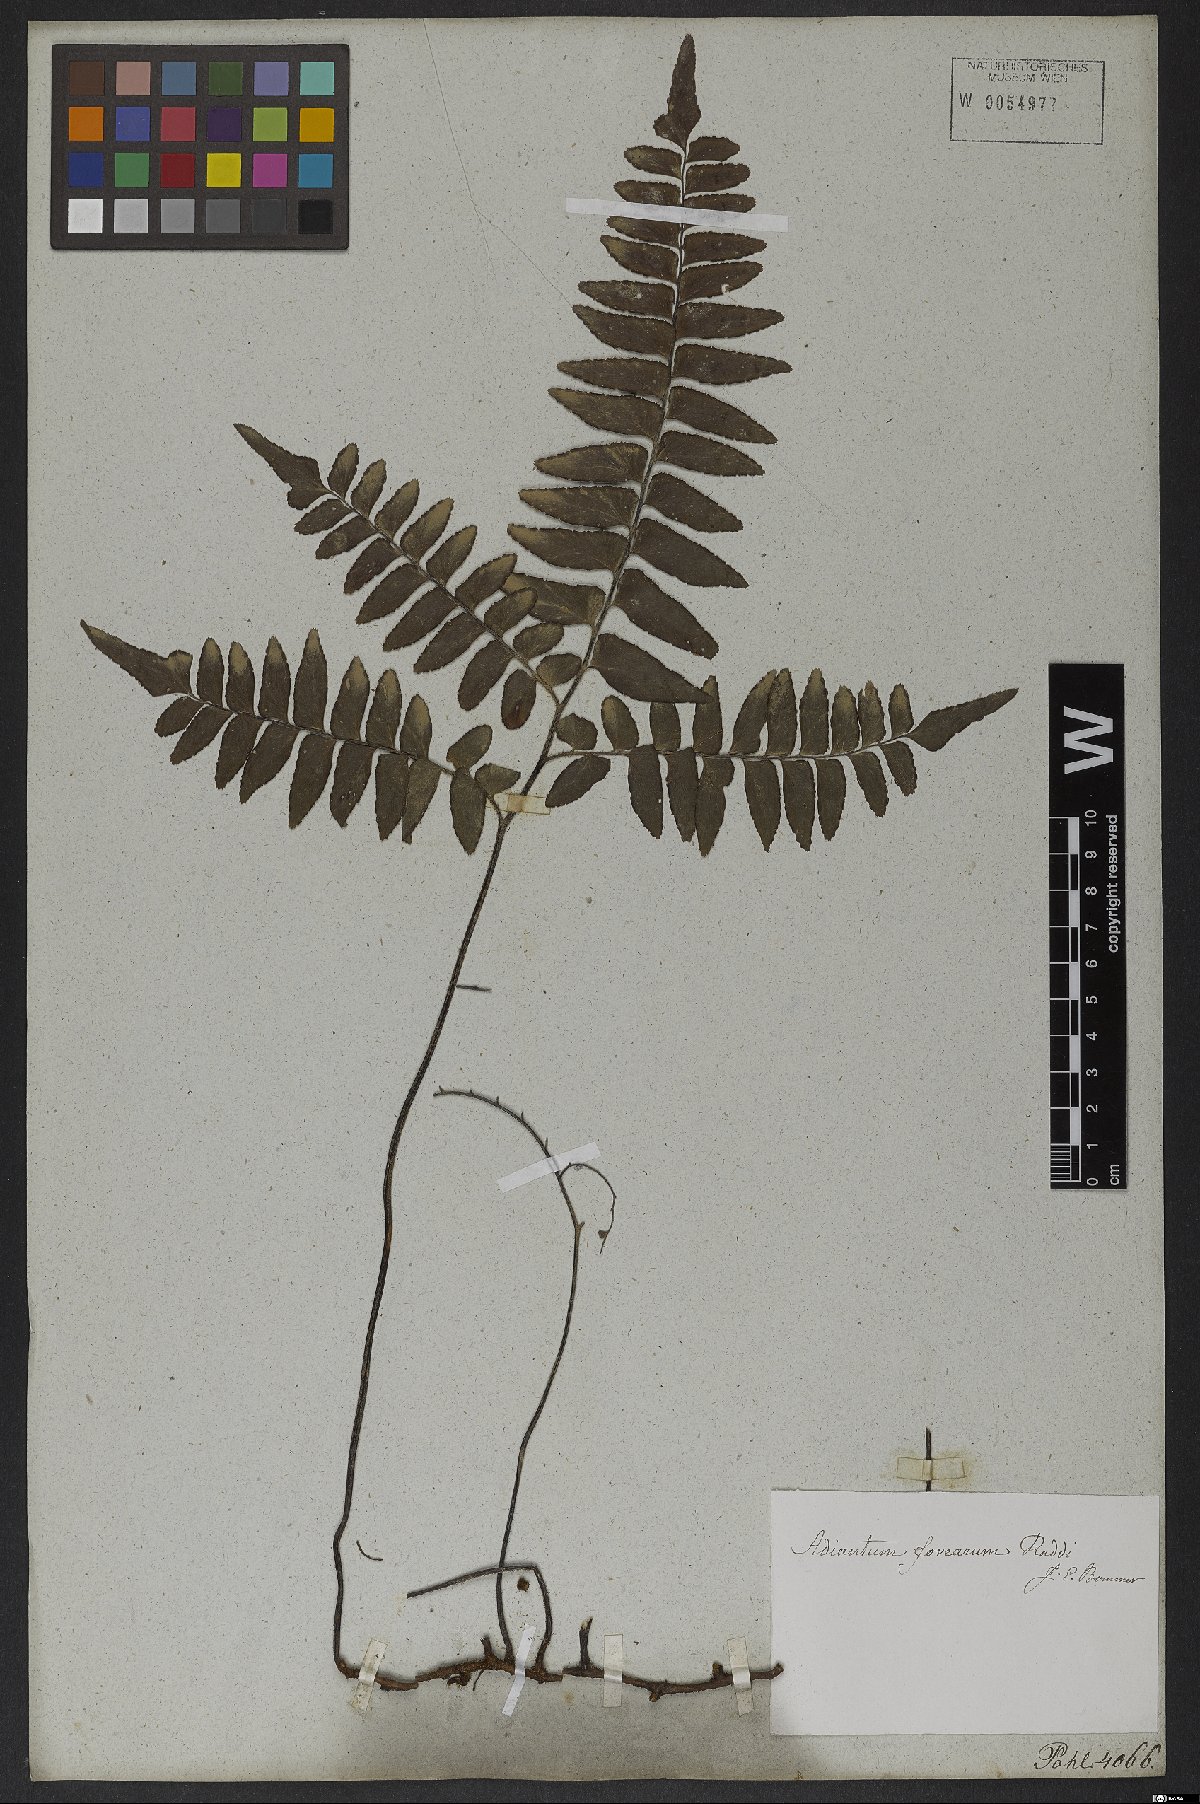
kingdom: Plantae
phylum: Tracheophyta
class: Polypodiopsida
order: Polypodiales
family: Pteridaceae
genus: Adiantum
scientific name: Adiantum latifolium
